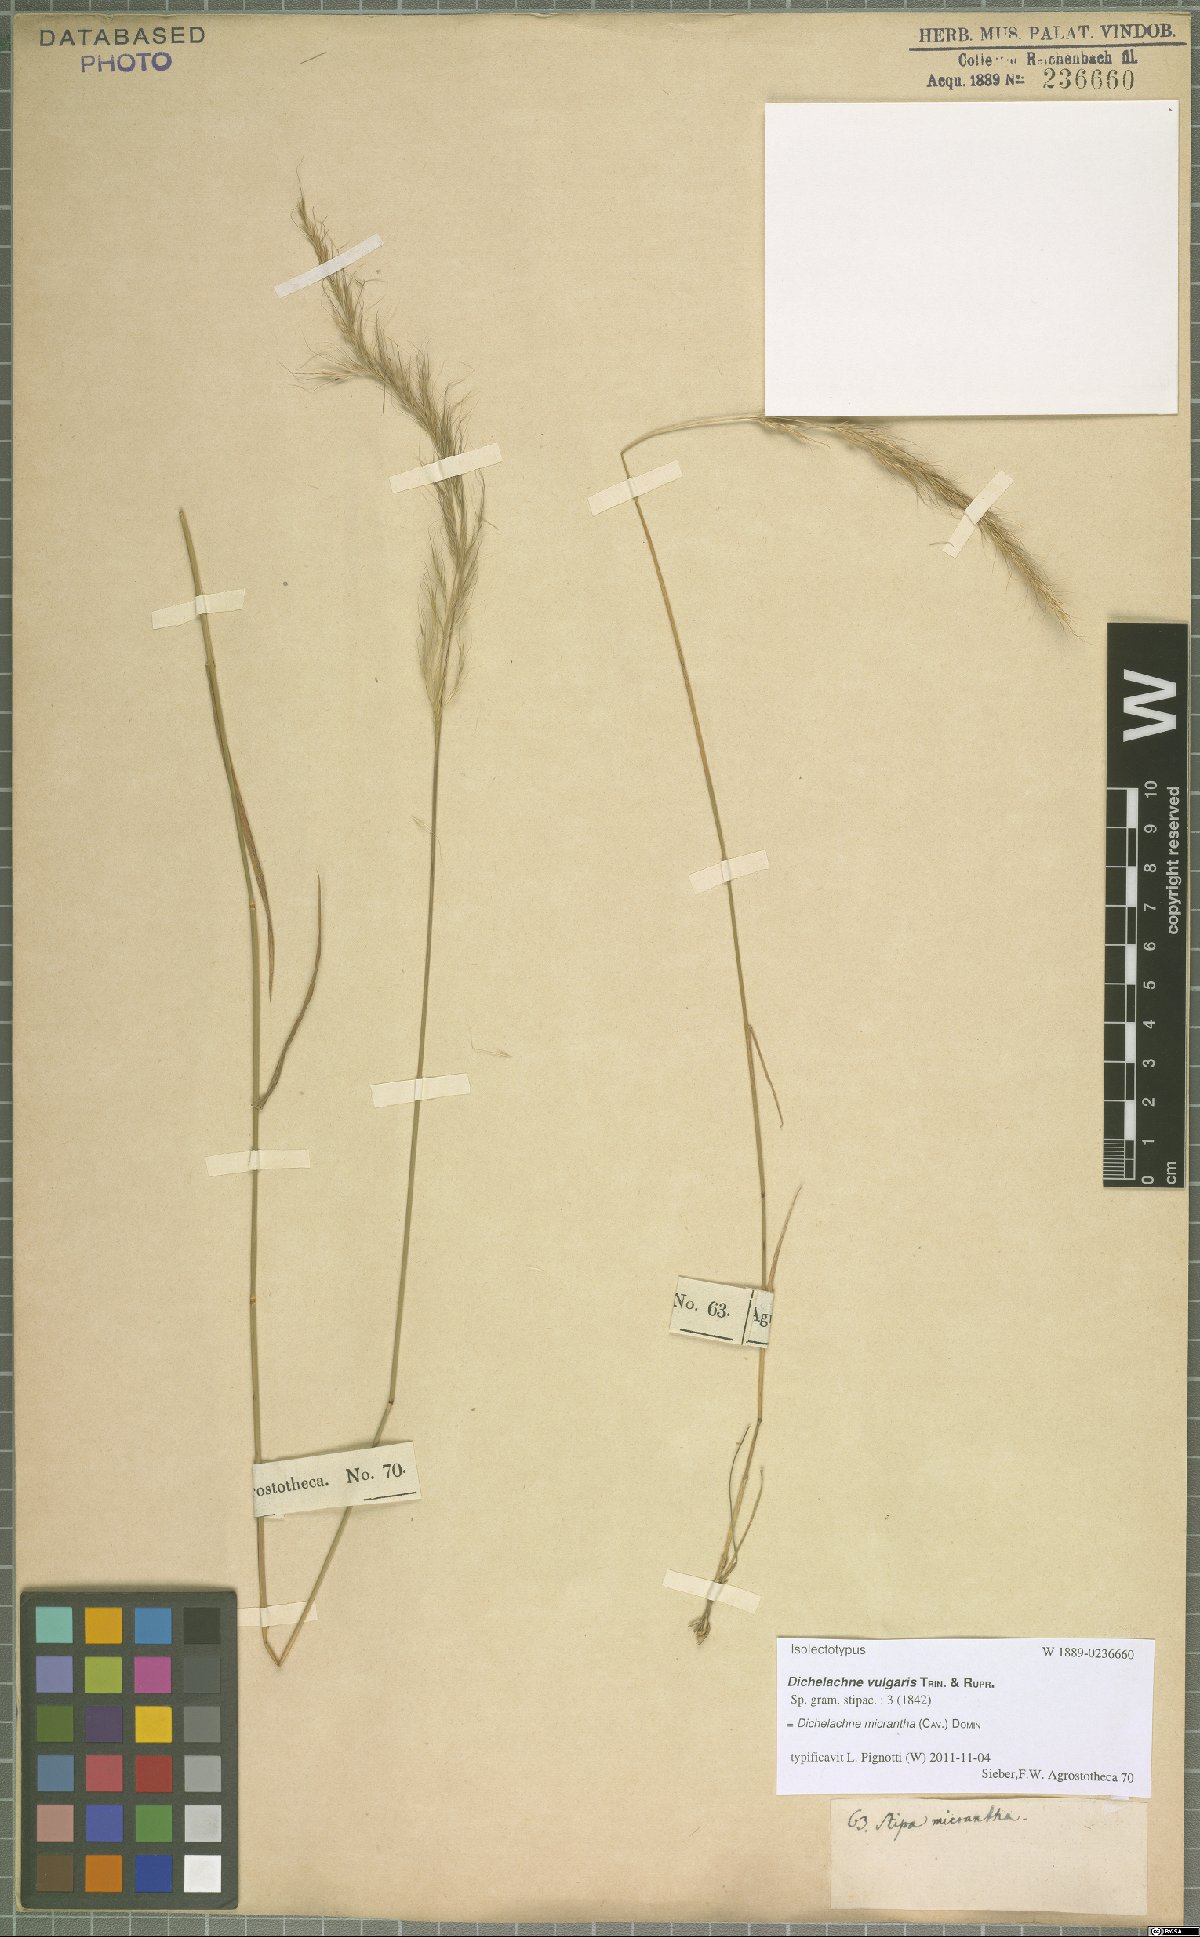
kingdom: Plantae
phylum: Tracheophyta
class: Liliopsida
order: Poales
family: Poaceae
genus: Dichelachne
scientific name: Dichelachne micrantha
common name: Plumegrass
